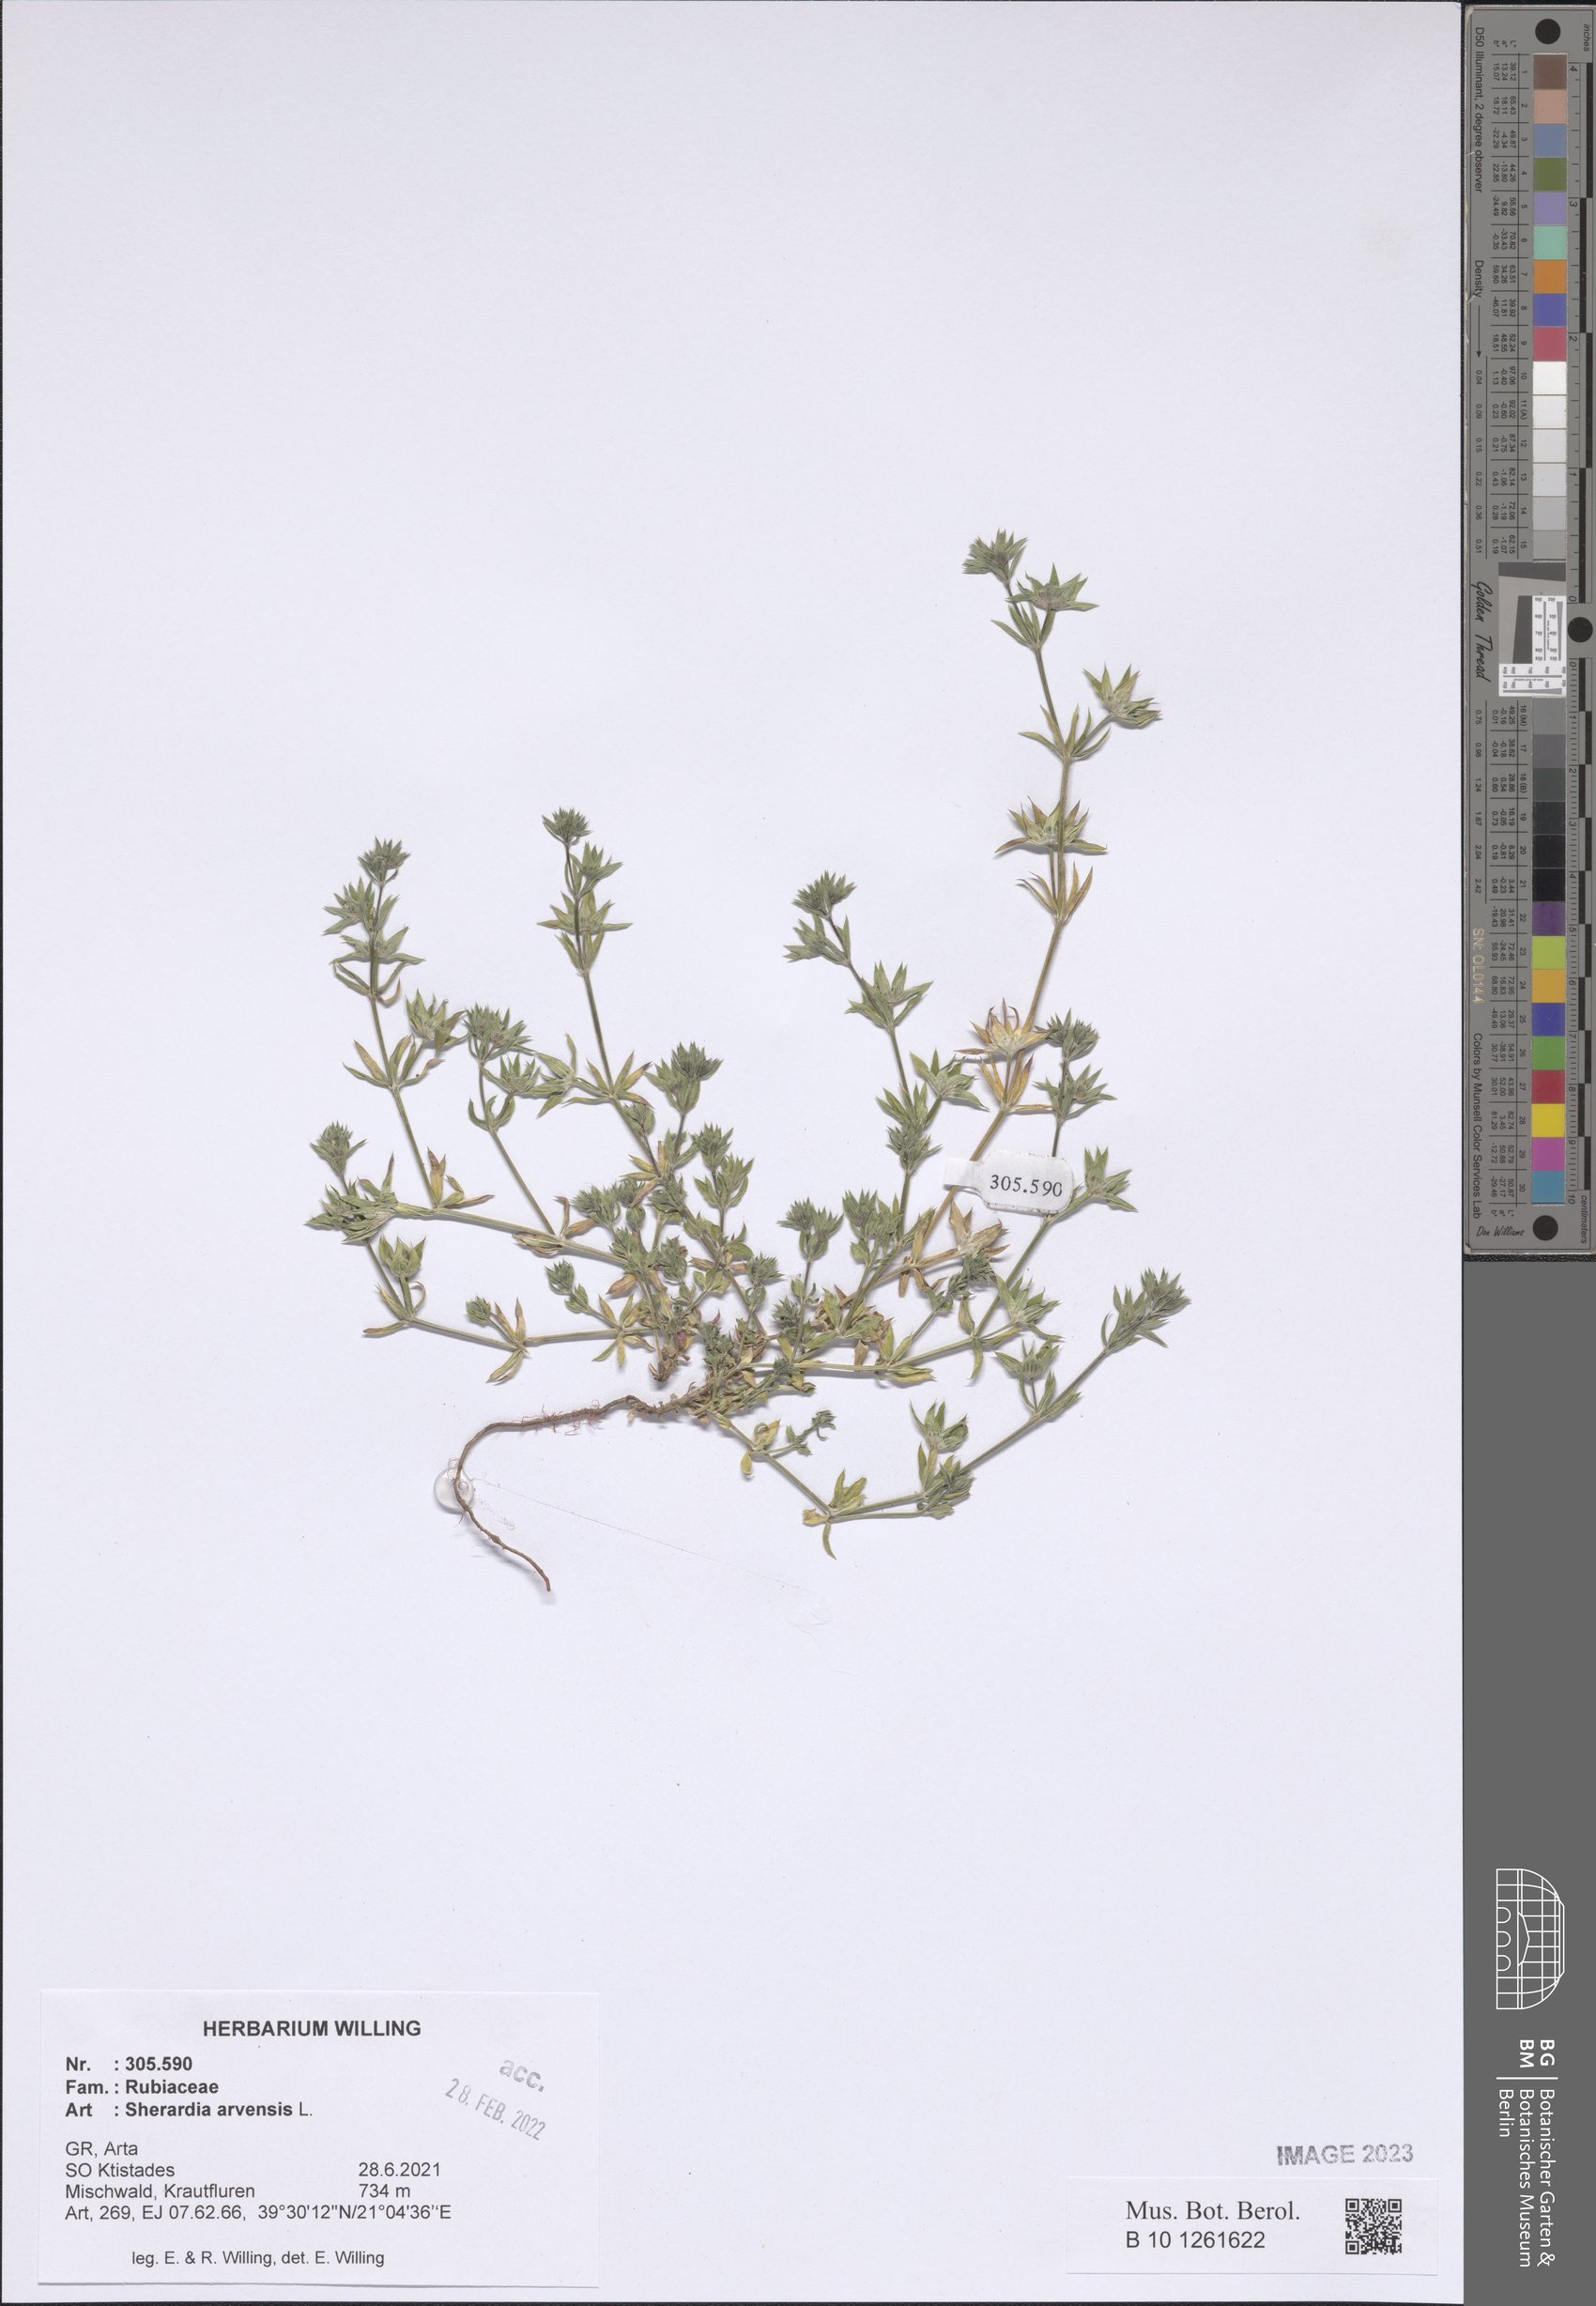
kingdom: Plantae
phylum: Tracheophyta
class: Magnoliopsida
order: Gentianales
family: Rubiaceae
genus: Sherardia
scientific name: Sherardia arvensis
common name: Field madder
